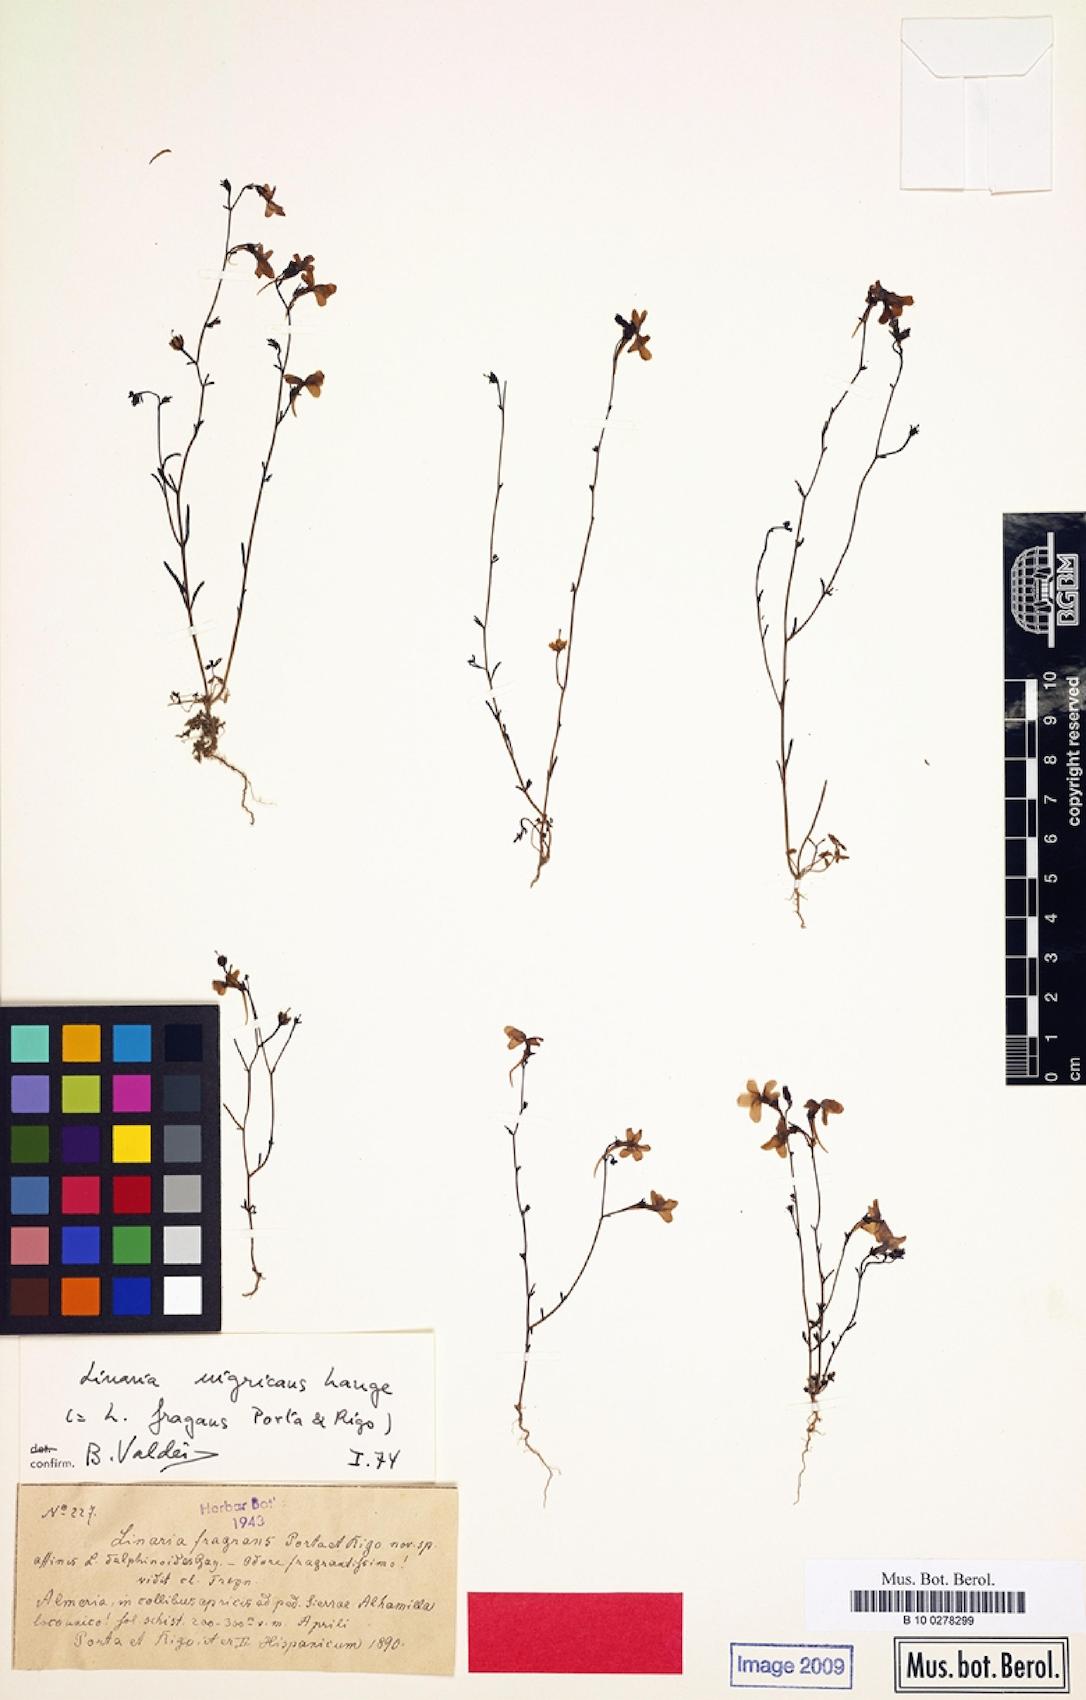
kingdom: Plantae
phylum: Tracheophyta
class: Magnoliopsida
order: Lamiales
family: Plantaginaceae
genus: Linaria
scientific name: Linaria nigricans
